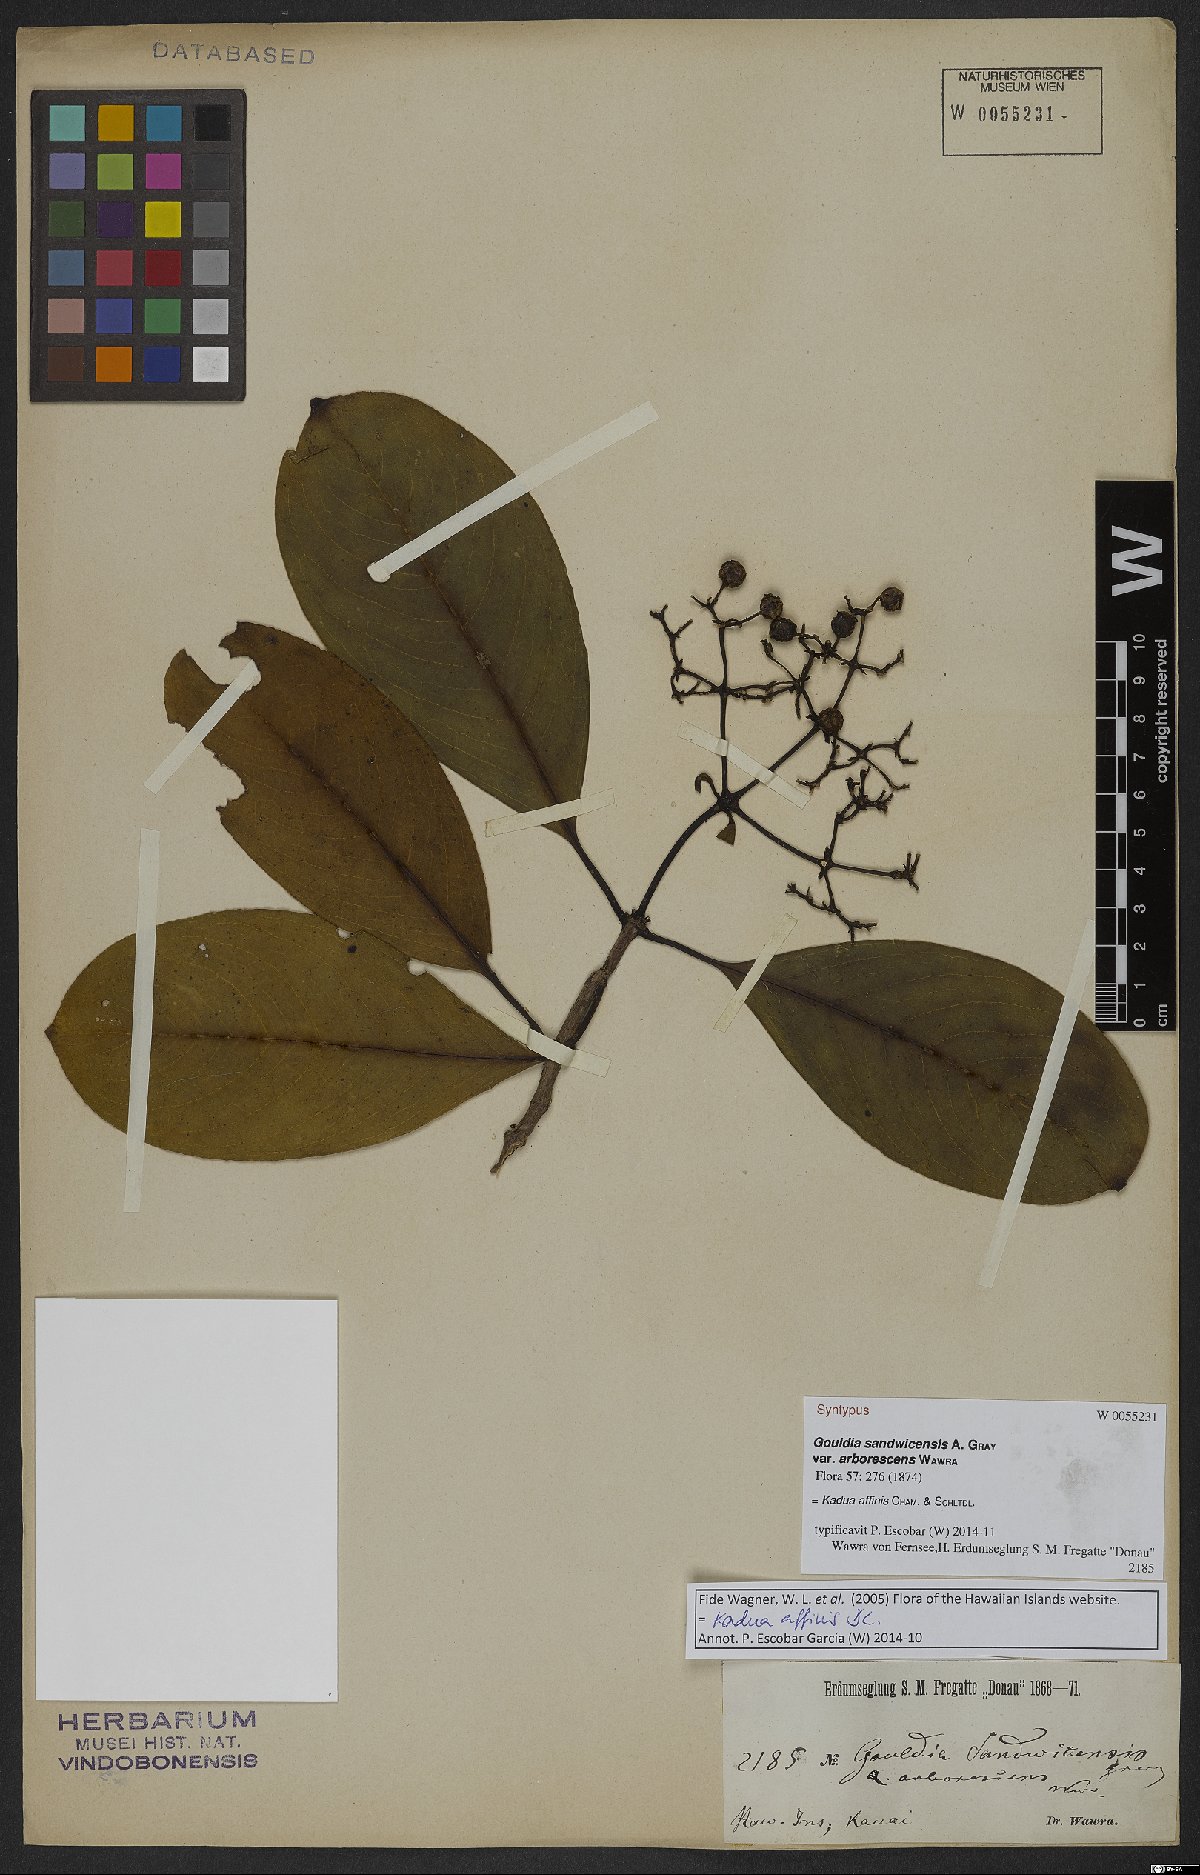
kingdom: Plantae
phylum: Tracheophyta
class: Magnoliopsida
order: Gentianales
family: Rubiaceae
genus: Kadua
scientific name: Kadua affinis
